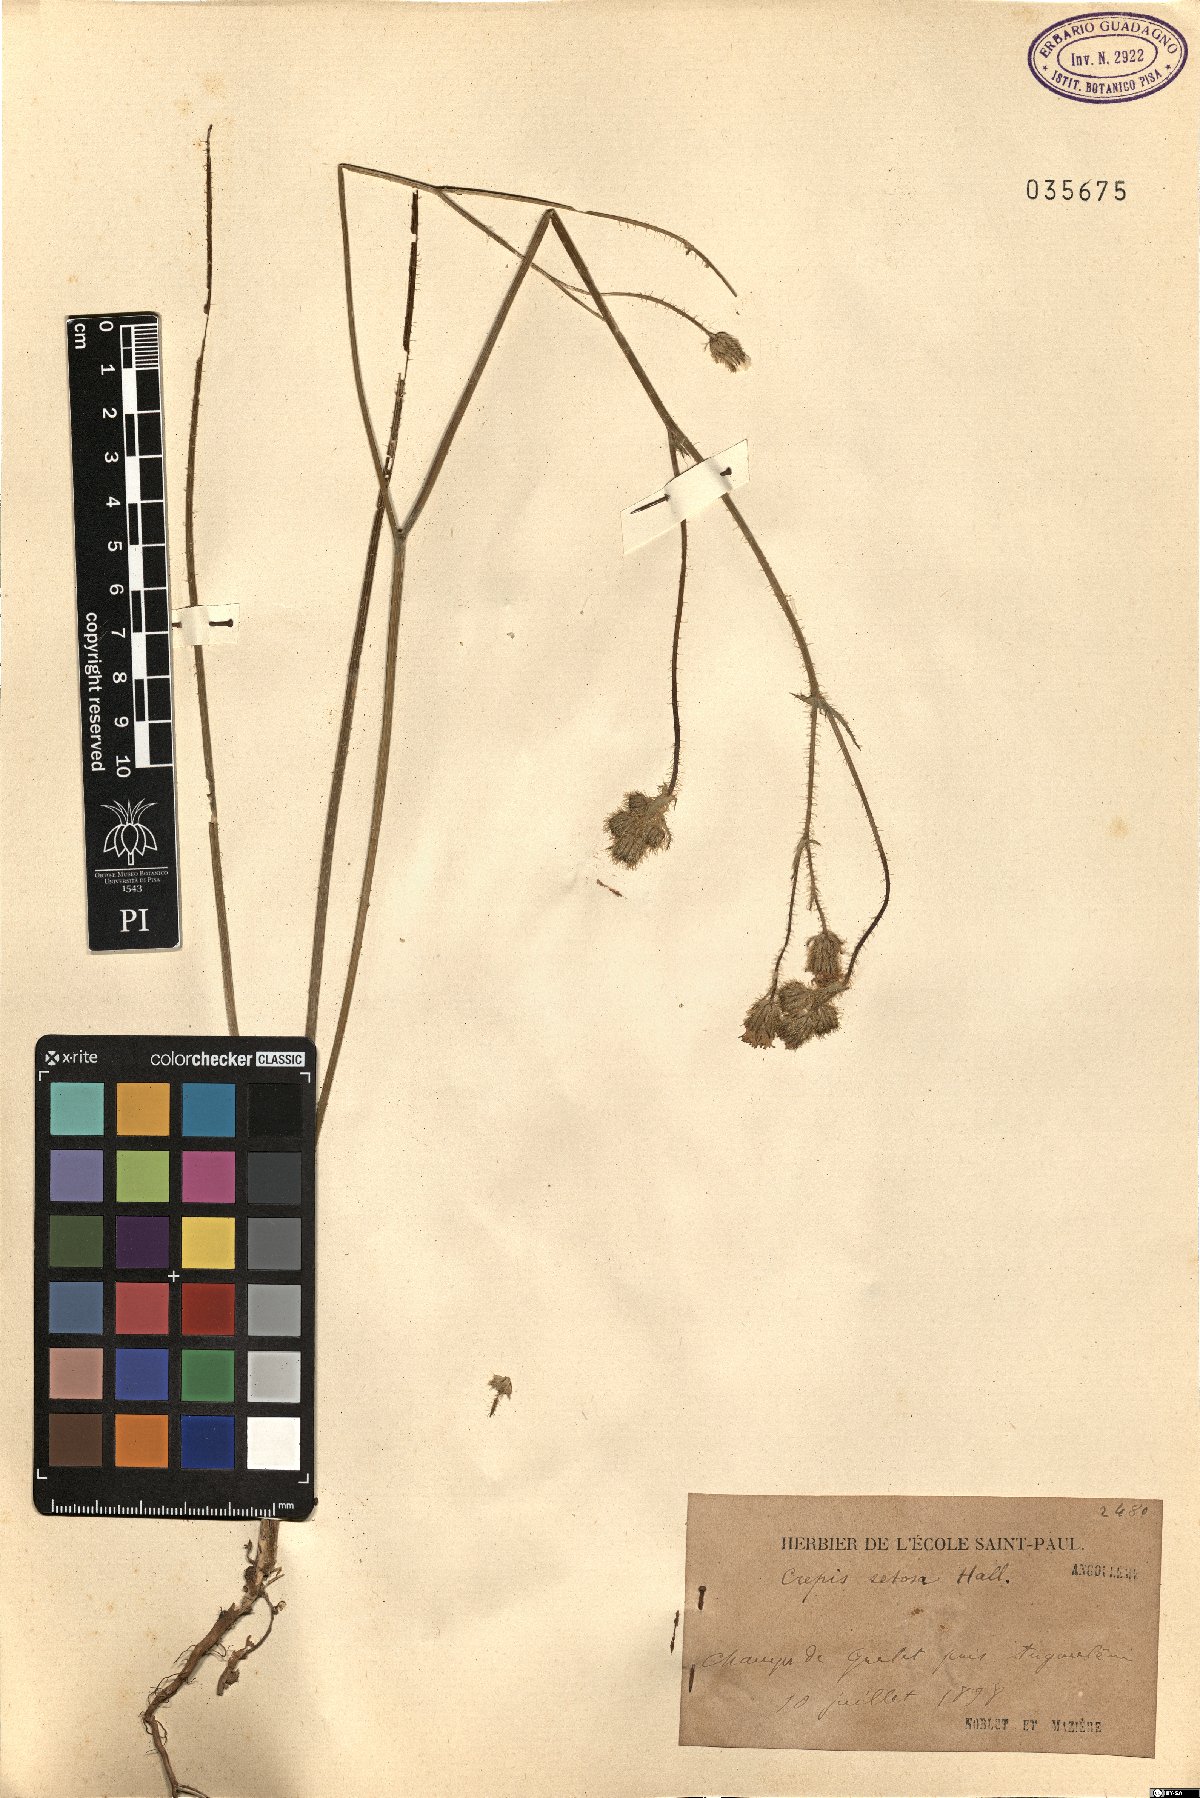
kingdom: Plantae
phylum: Tracheophyta
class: Magnoliopsida
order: Asterales
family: Asteraceae
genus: Crepis
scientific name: Crepis setosa
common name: Bristly hawk's-beard
